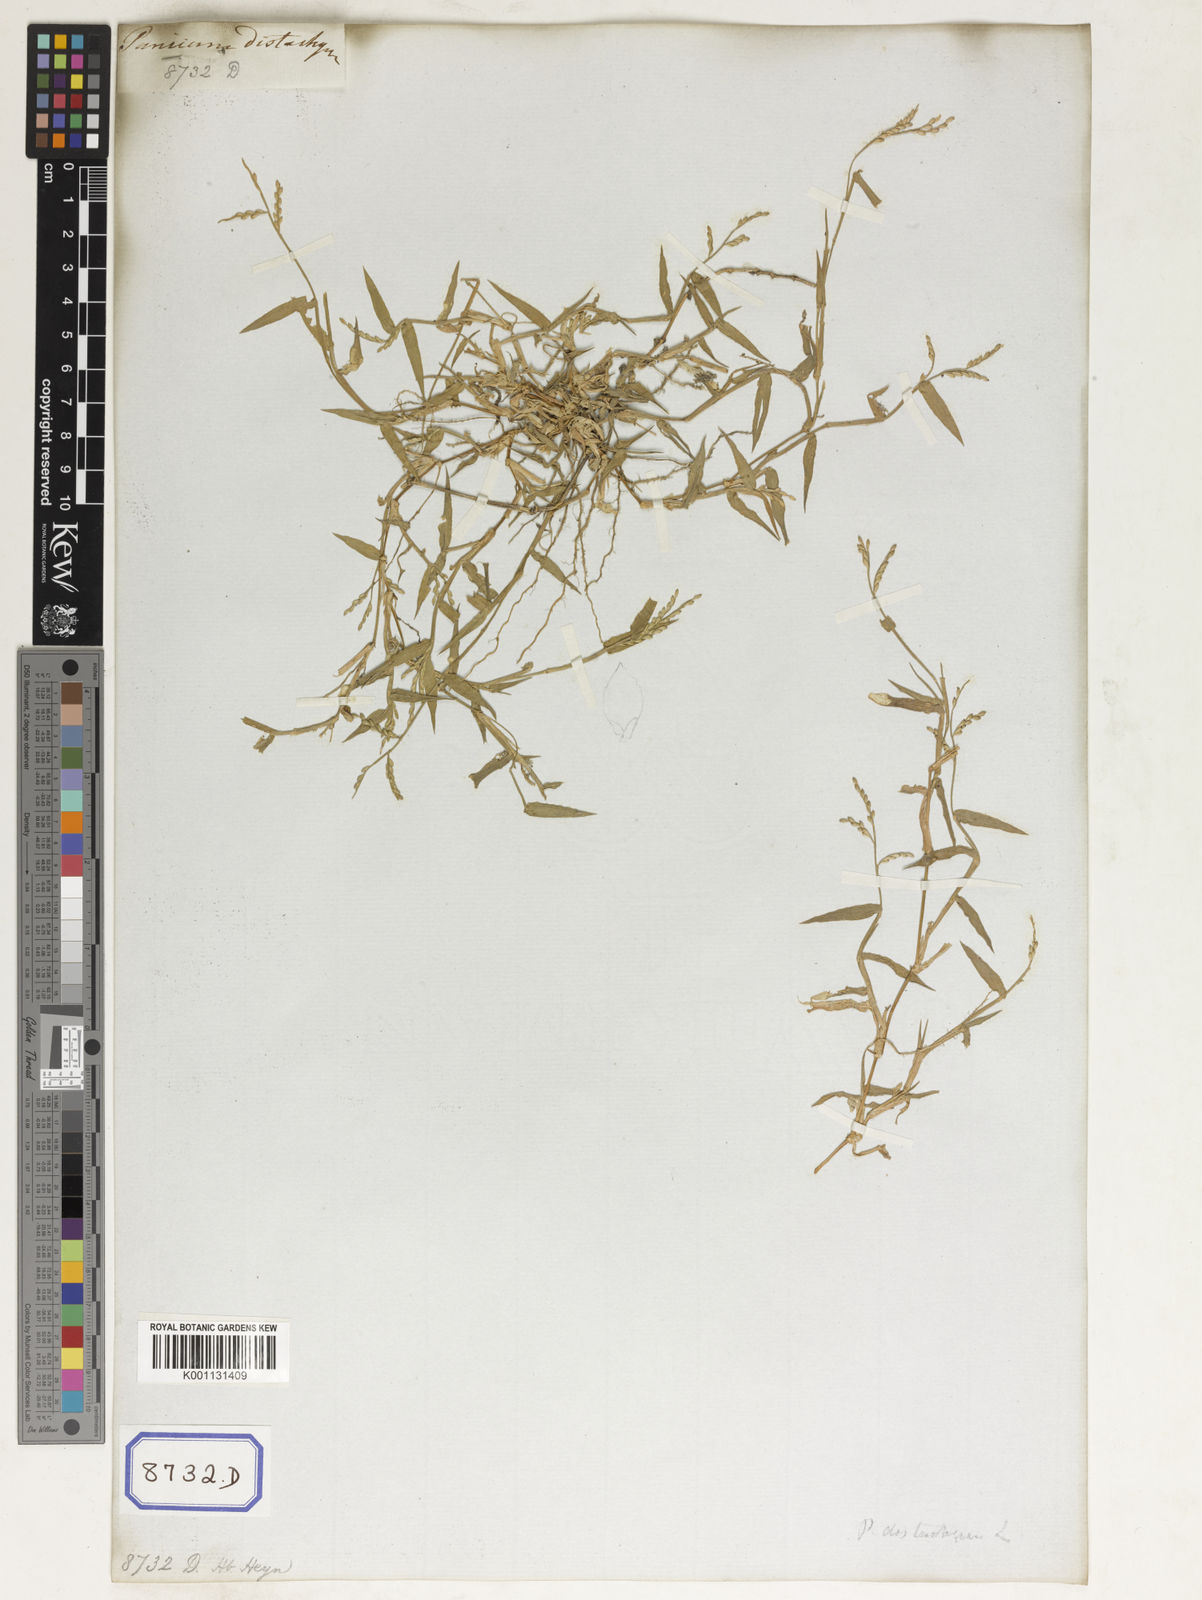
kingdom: Plantae
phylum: Tracheophyta
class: Liliopsida
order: Poales
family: Poaceae
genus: Panicum
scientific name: Panicum
